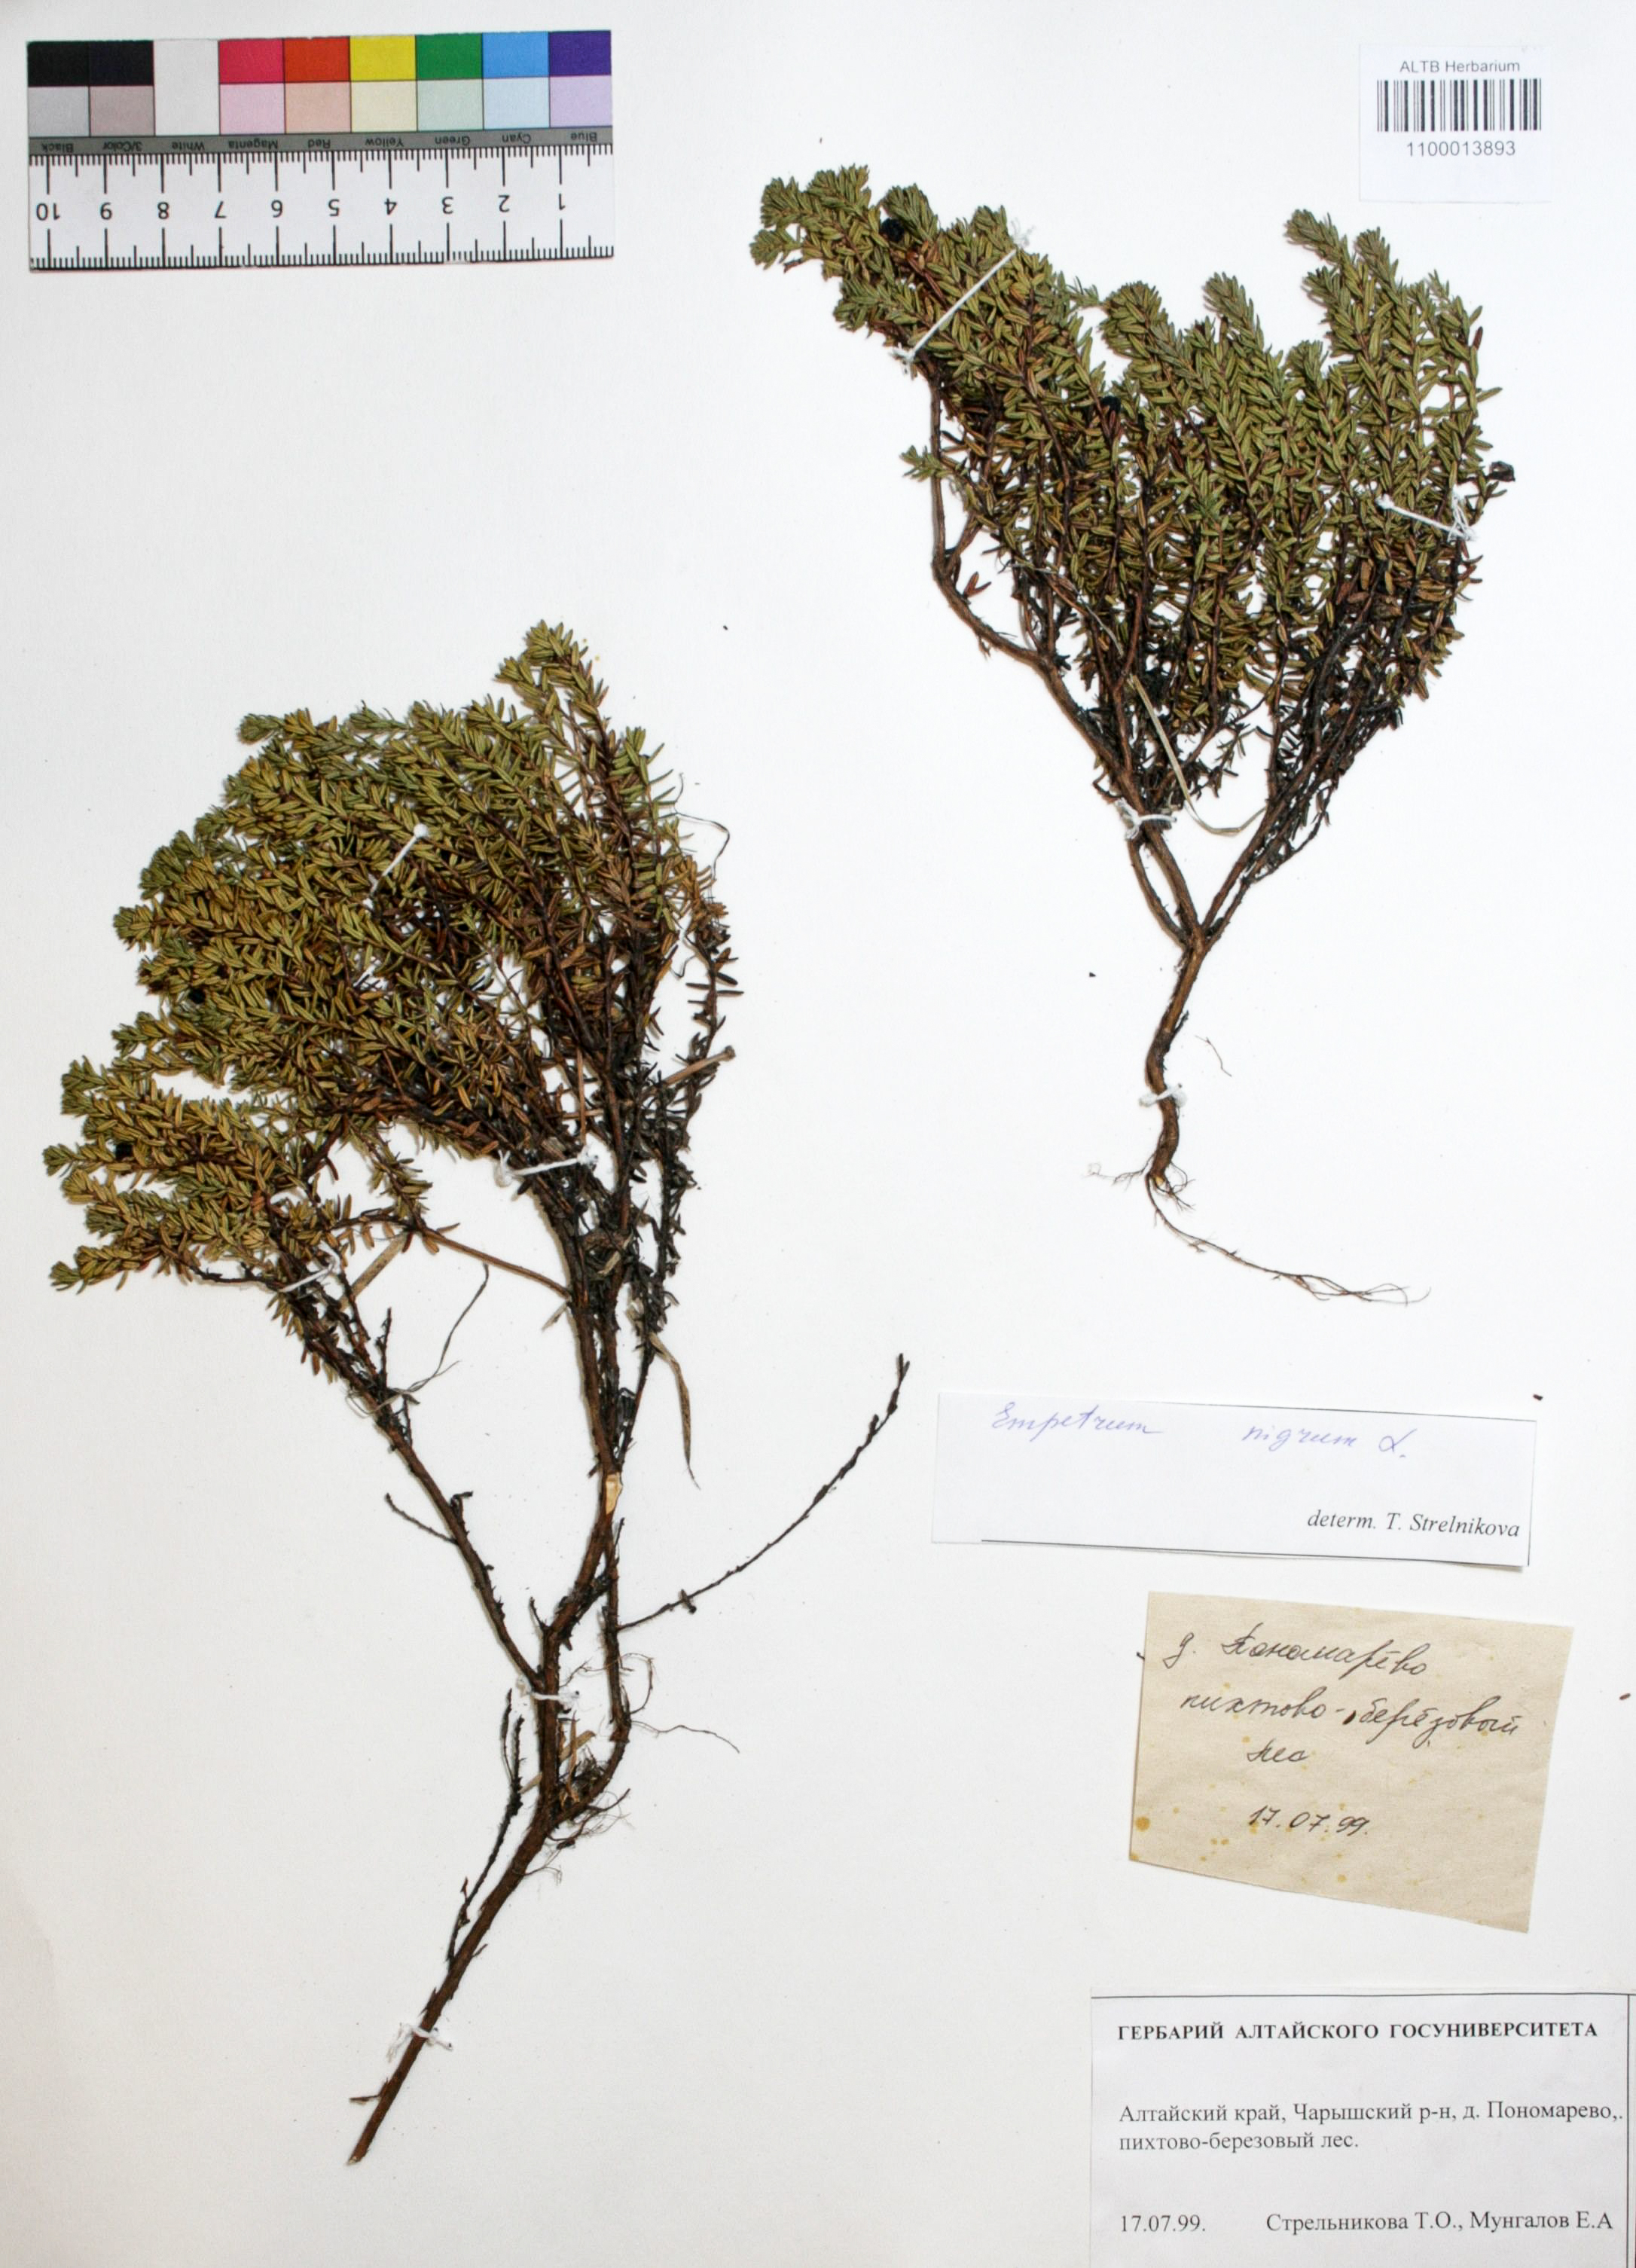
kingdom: Plantae
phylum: Tracheophyta
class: Magnoliopsida
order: Ericales
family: Ericaceae
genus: Empetrum
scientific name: Empetrum nigrum
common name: Black crowberry
